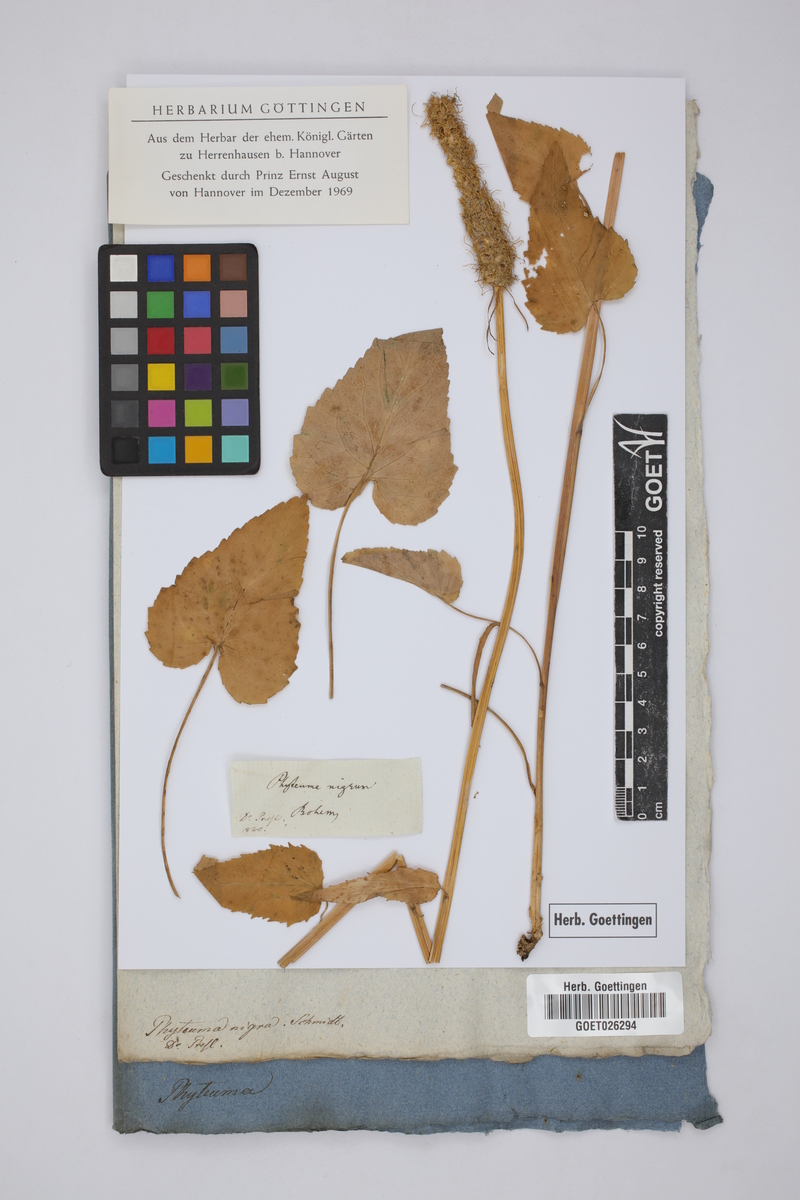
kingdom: Plantae
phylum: Tracheophyta
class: Magnoliopsida
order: Asterales
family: Campanulaceae
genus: Phyteuma
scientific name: Phyteuma nigrum
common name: Black rampion
